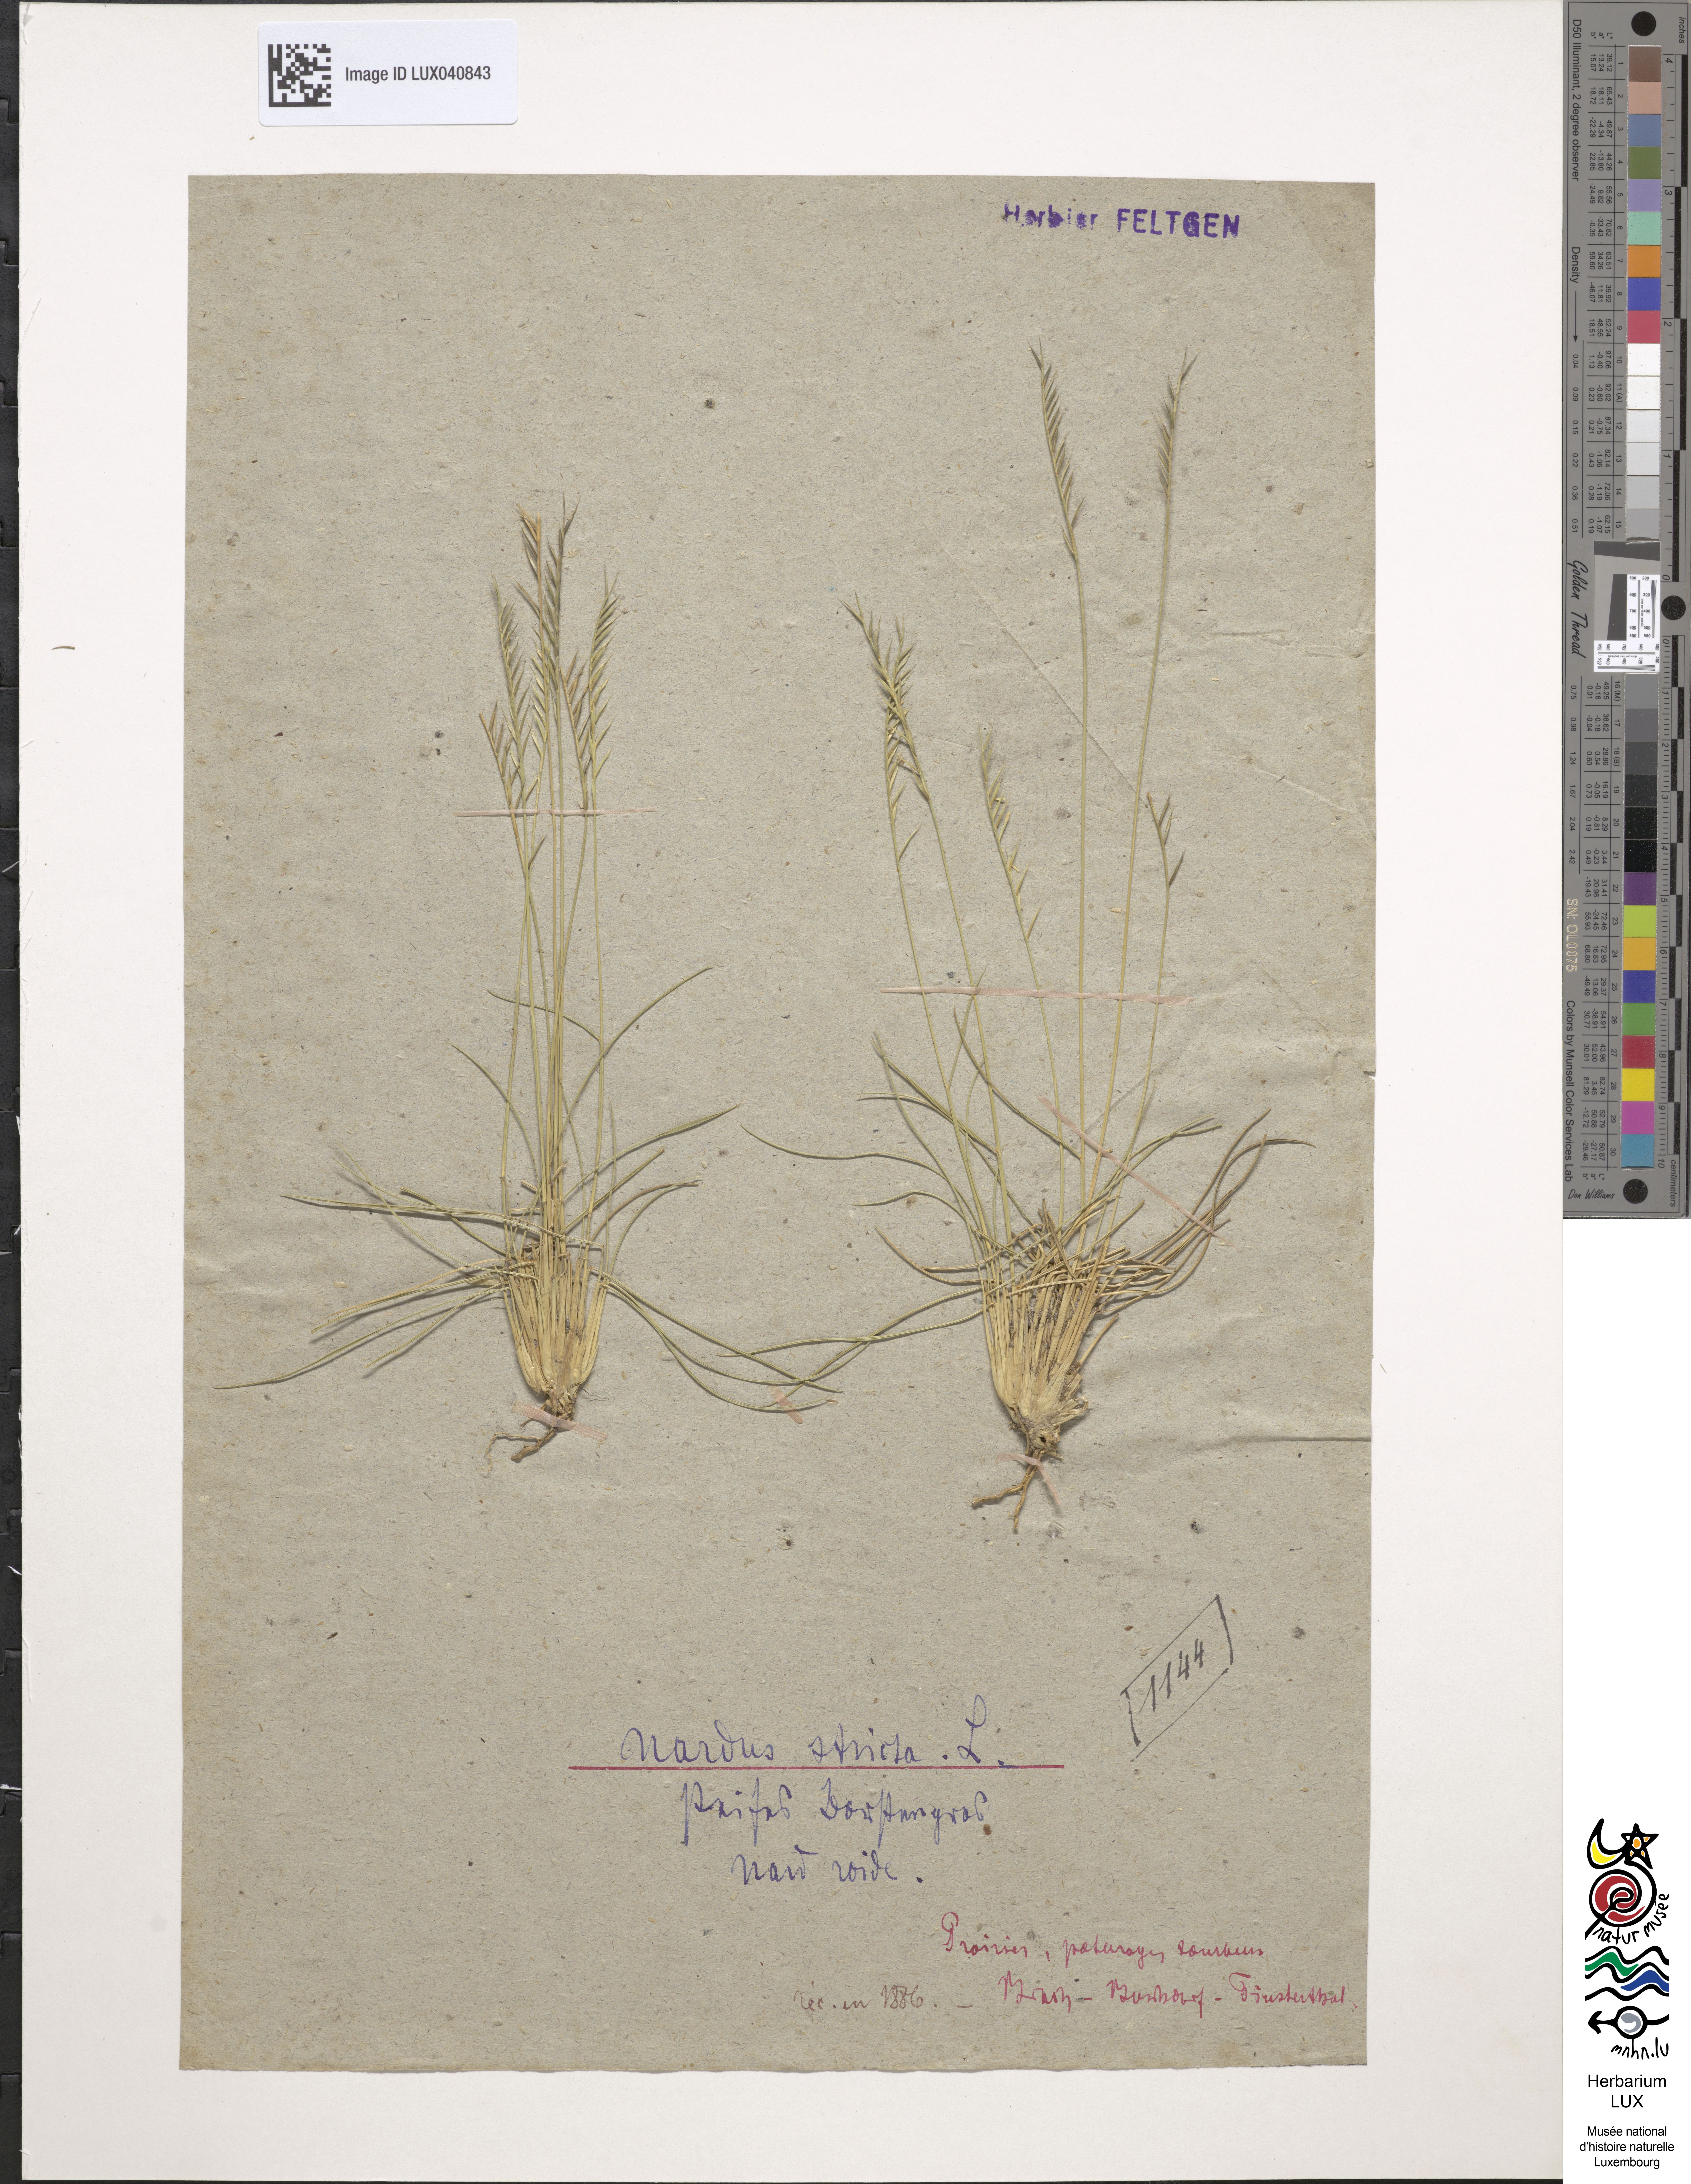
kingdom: Plantae
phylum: Tracheophyta
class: Liliopsida
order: Poales
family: Poaceae
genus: Nardus
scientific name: Nardus stricta
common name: Mat-grass
